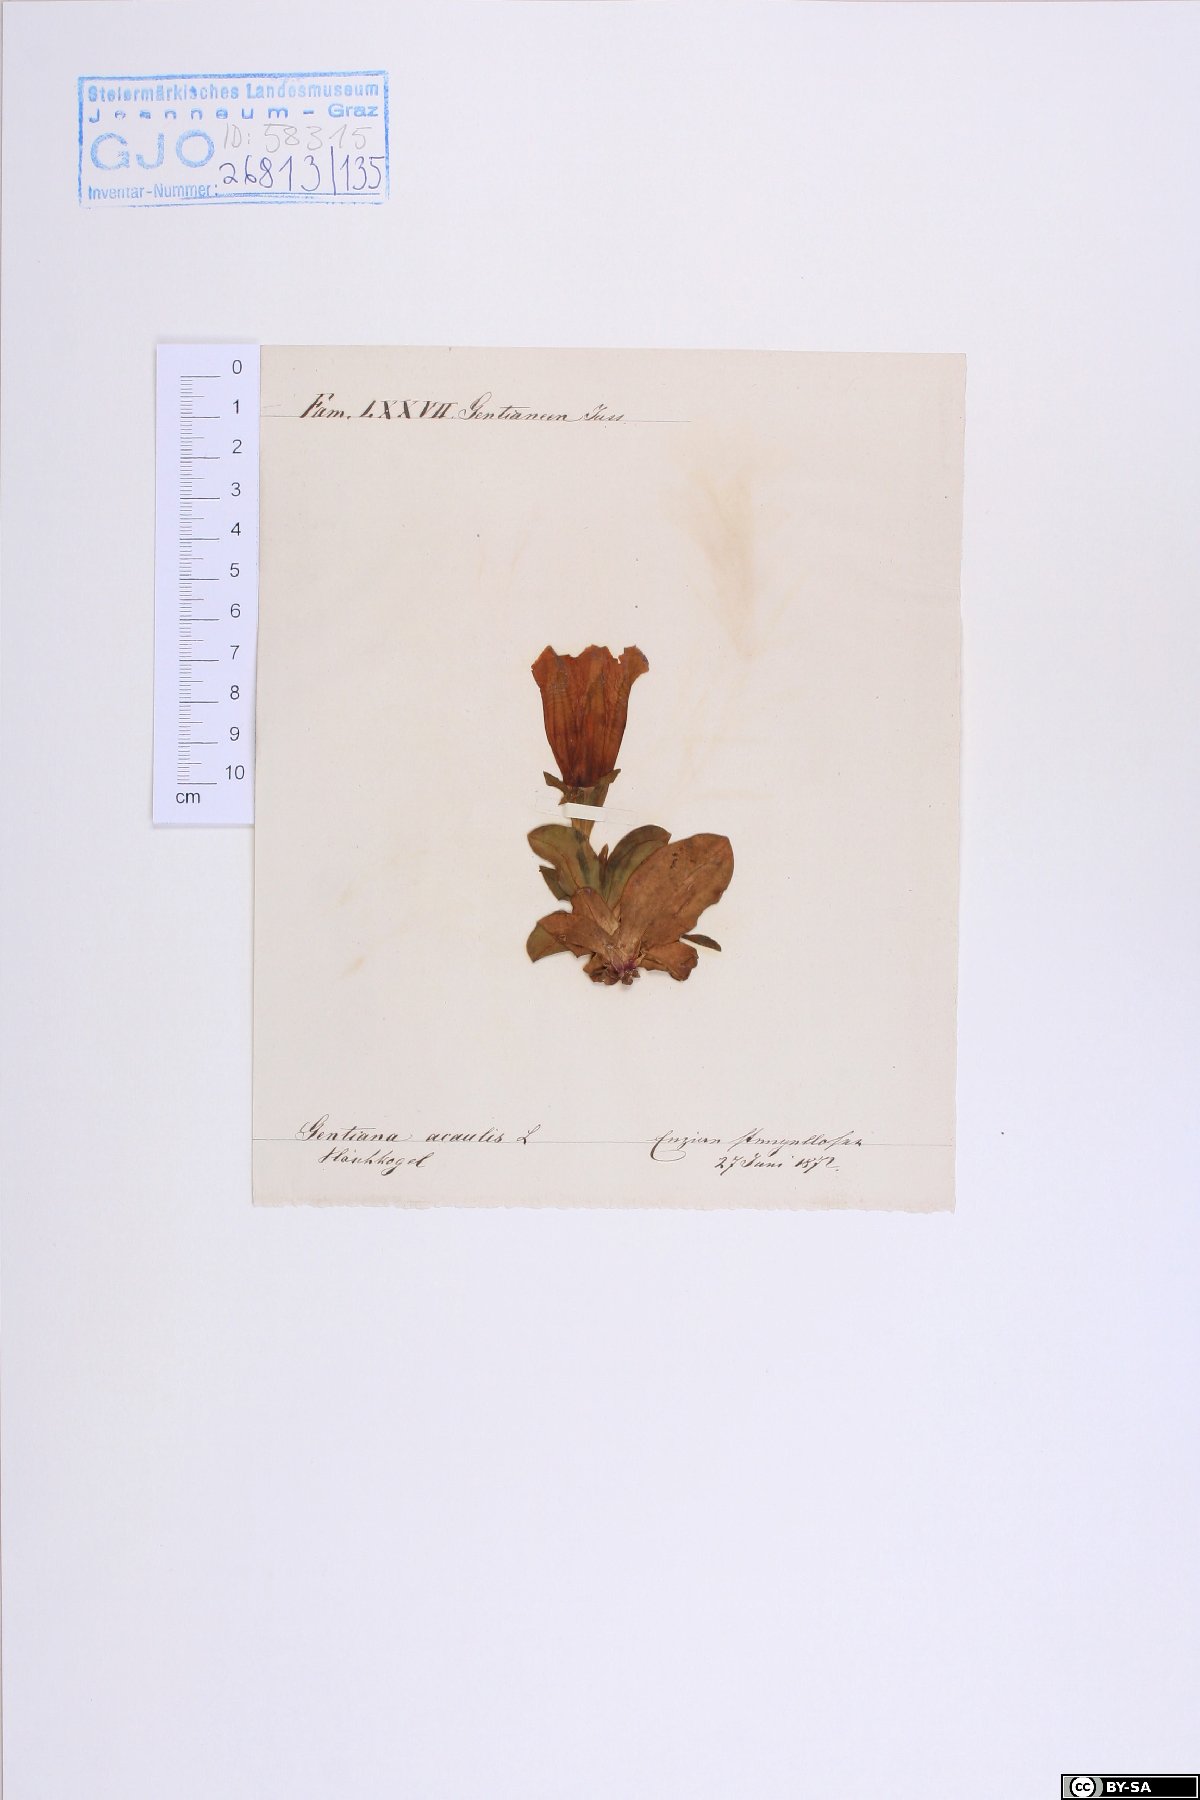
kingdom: Plantae
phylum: Tracheophyta
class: Magnoliopsida
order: Gentianales
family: Gentianaceae
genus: Gentiana
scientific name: Gentiana acaulis
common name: Trumpet gentian
